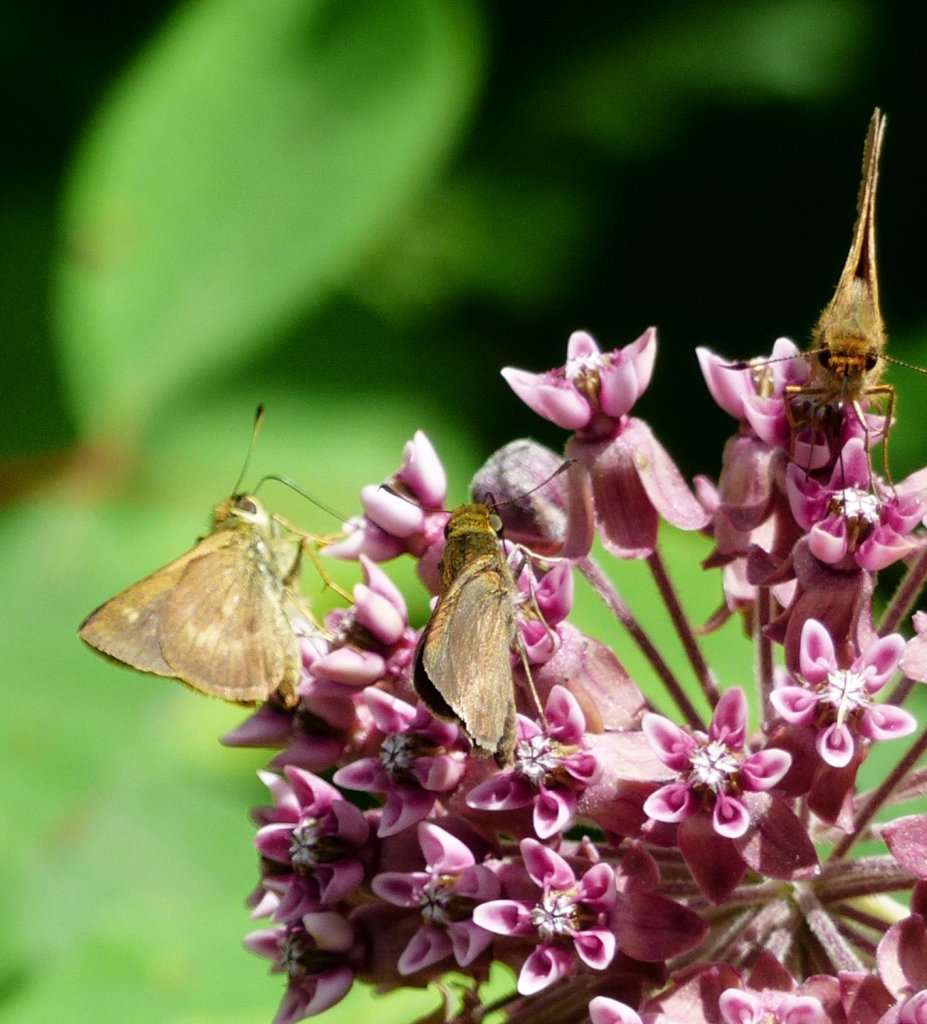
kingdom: Animalia
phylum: Arthropoda
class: Insecta
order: Lepidoptera
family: Hesperiidae
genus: Polites
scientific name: Polites egeremet
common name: Northern Broken-Dash
